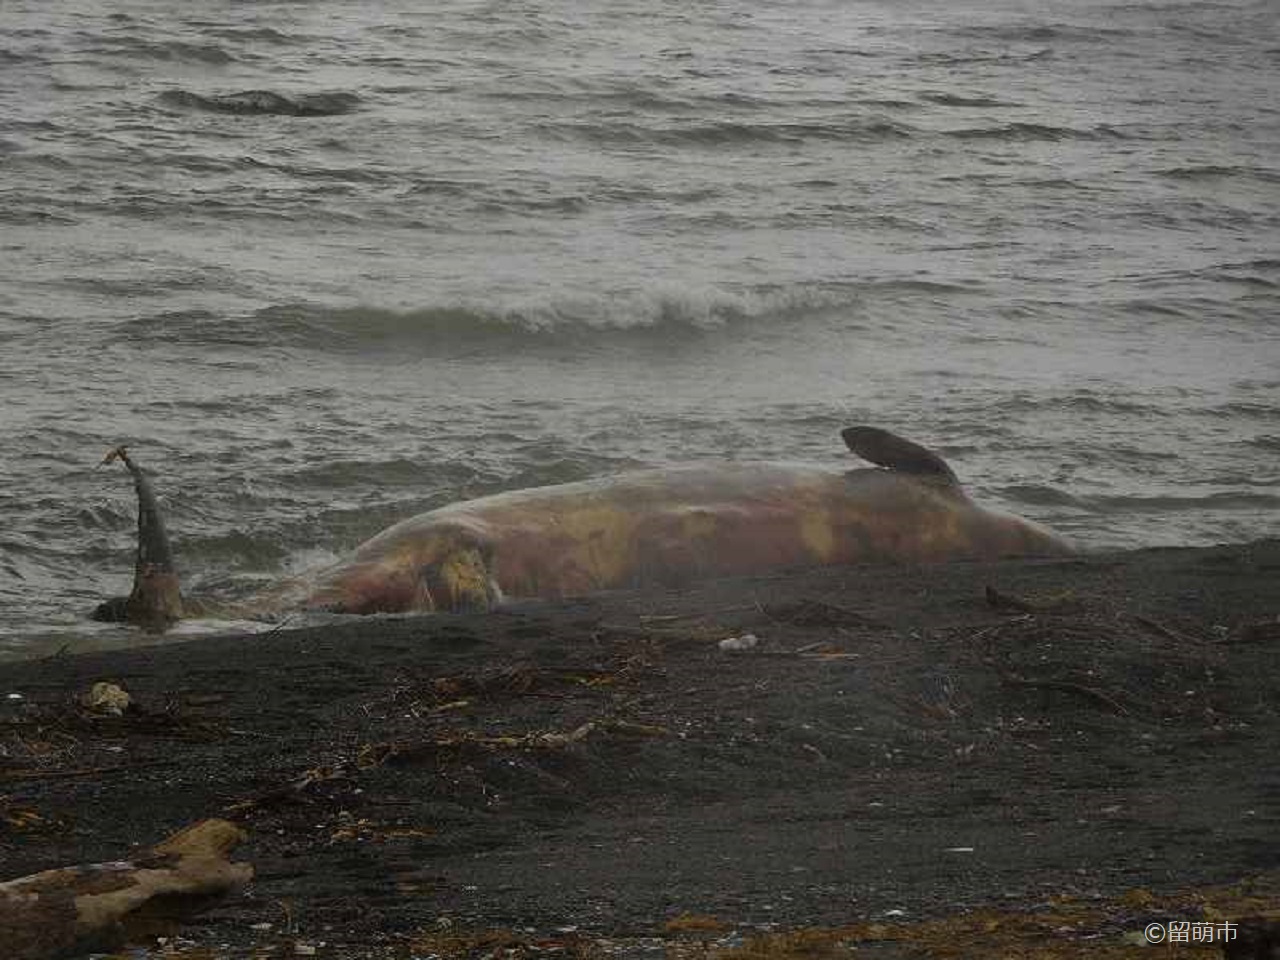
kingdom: Animalia
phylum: Chordata
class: Mammalia
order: Cetacea
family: Hyperoodontidae
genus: Berardius
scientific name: Berardius bairdii
